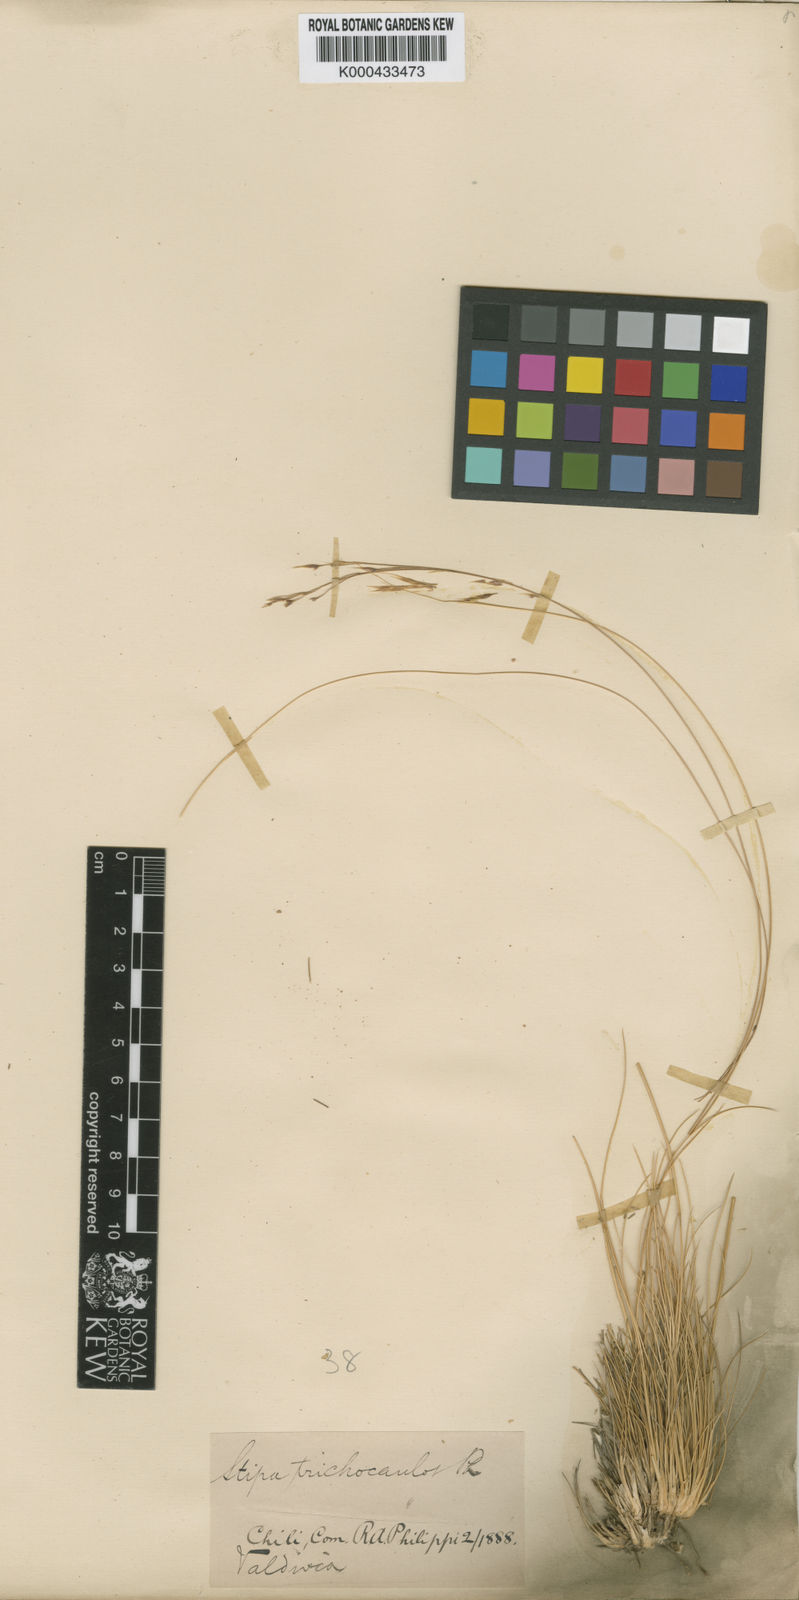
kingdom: Plantae
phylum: Tracheophyta
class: Liliopsida
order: Poales
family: Poaceae
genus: Nassella
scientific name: Nassella filiculmis
